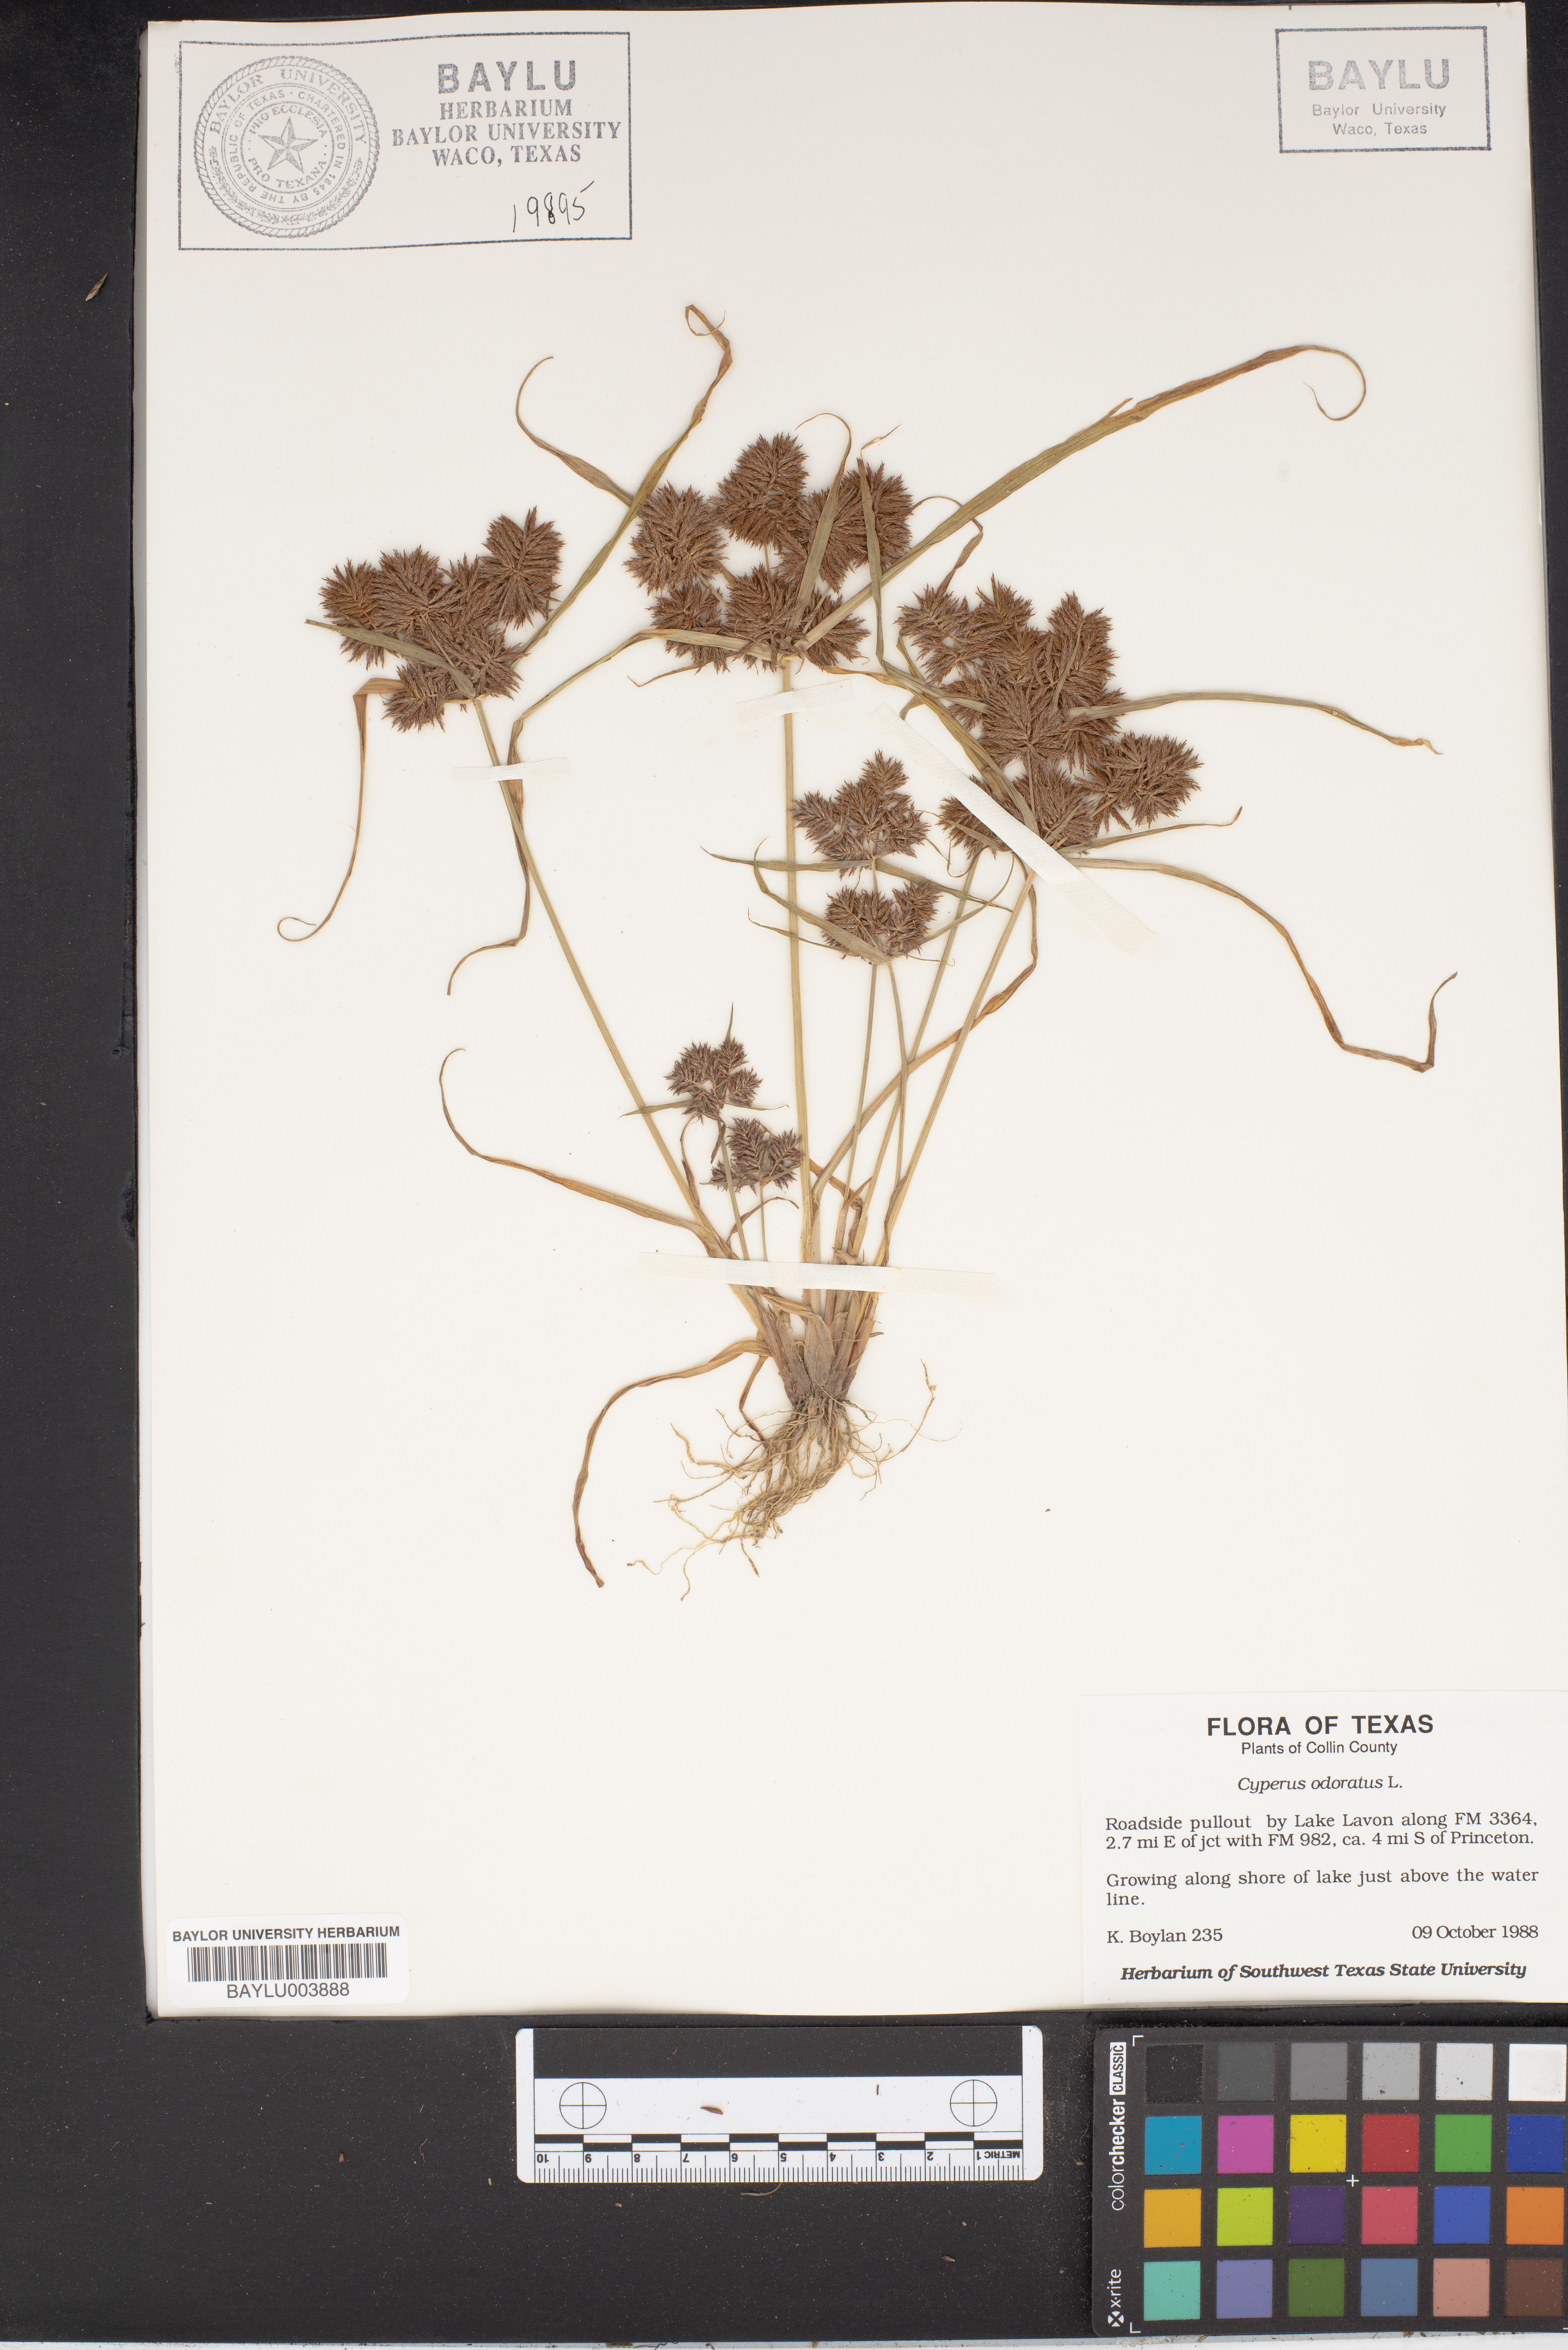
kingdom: Plantae
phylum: Tracheophyta
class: Liliopsida
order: Poales
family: Cyperaceae
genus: Cyperus
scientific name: Cyperus odoratus
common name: Fragrant flatsedge
